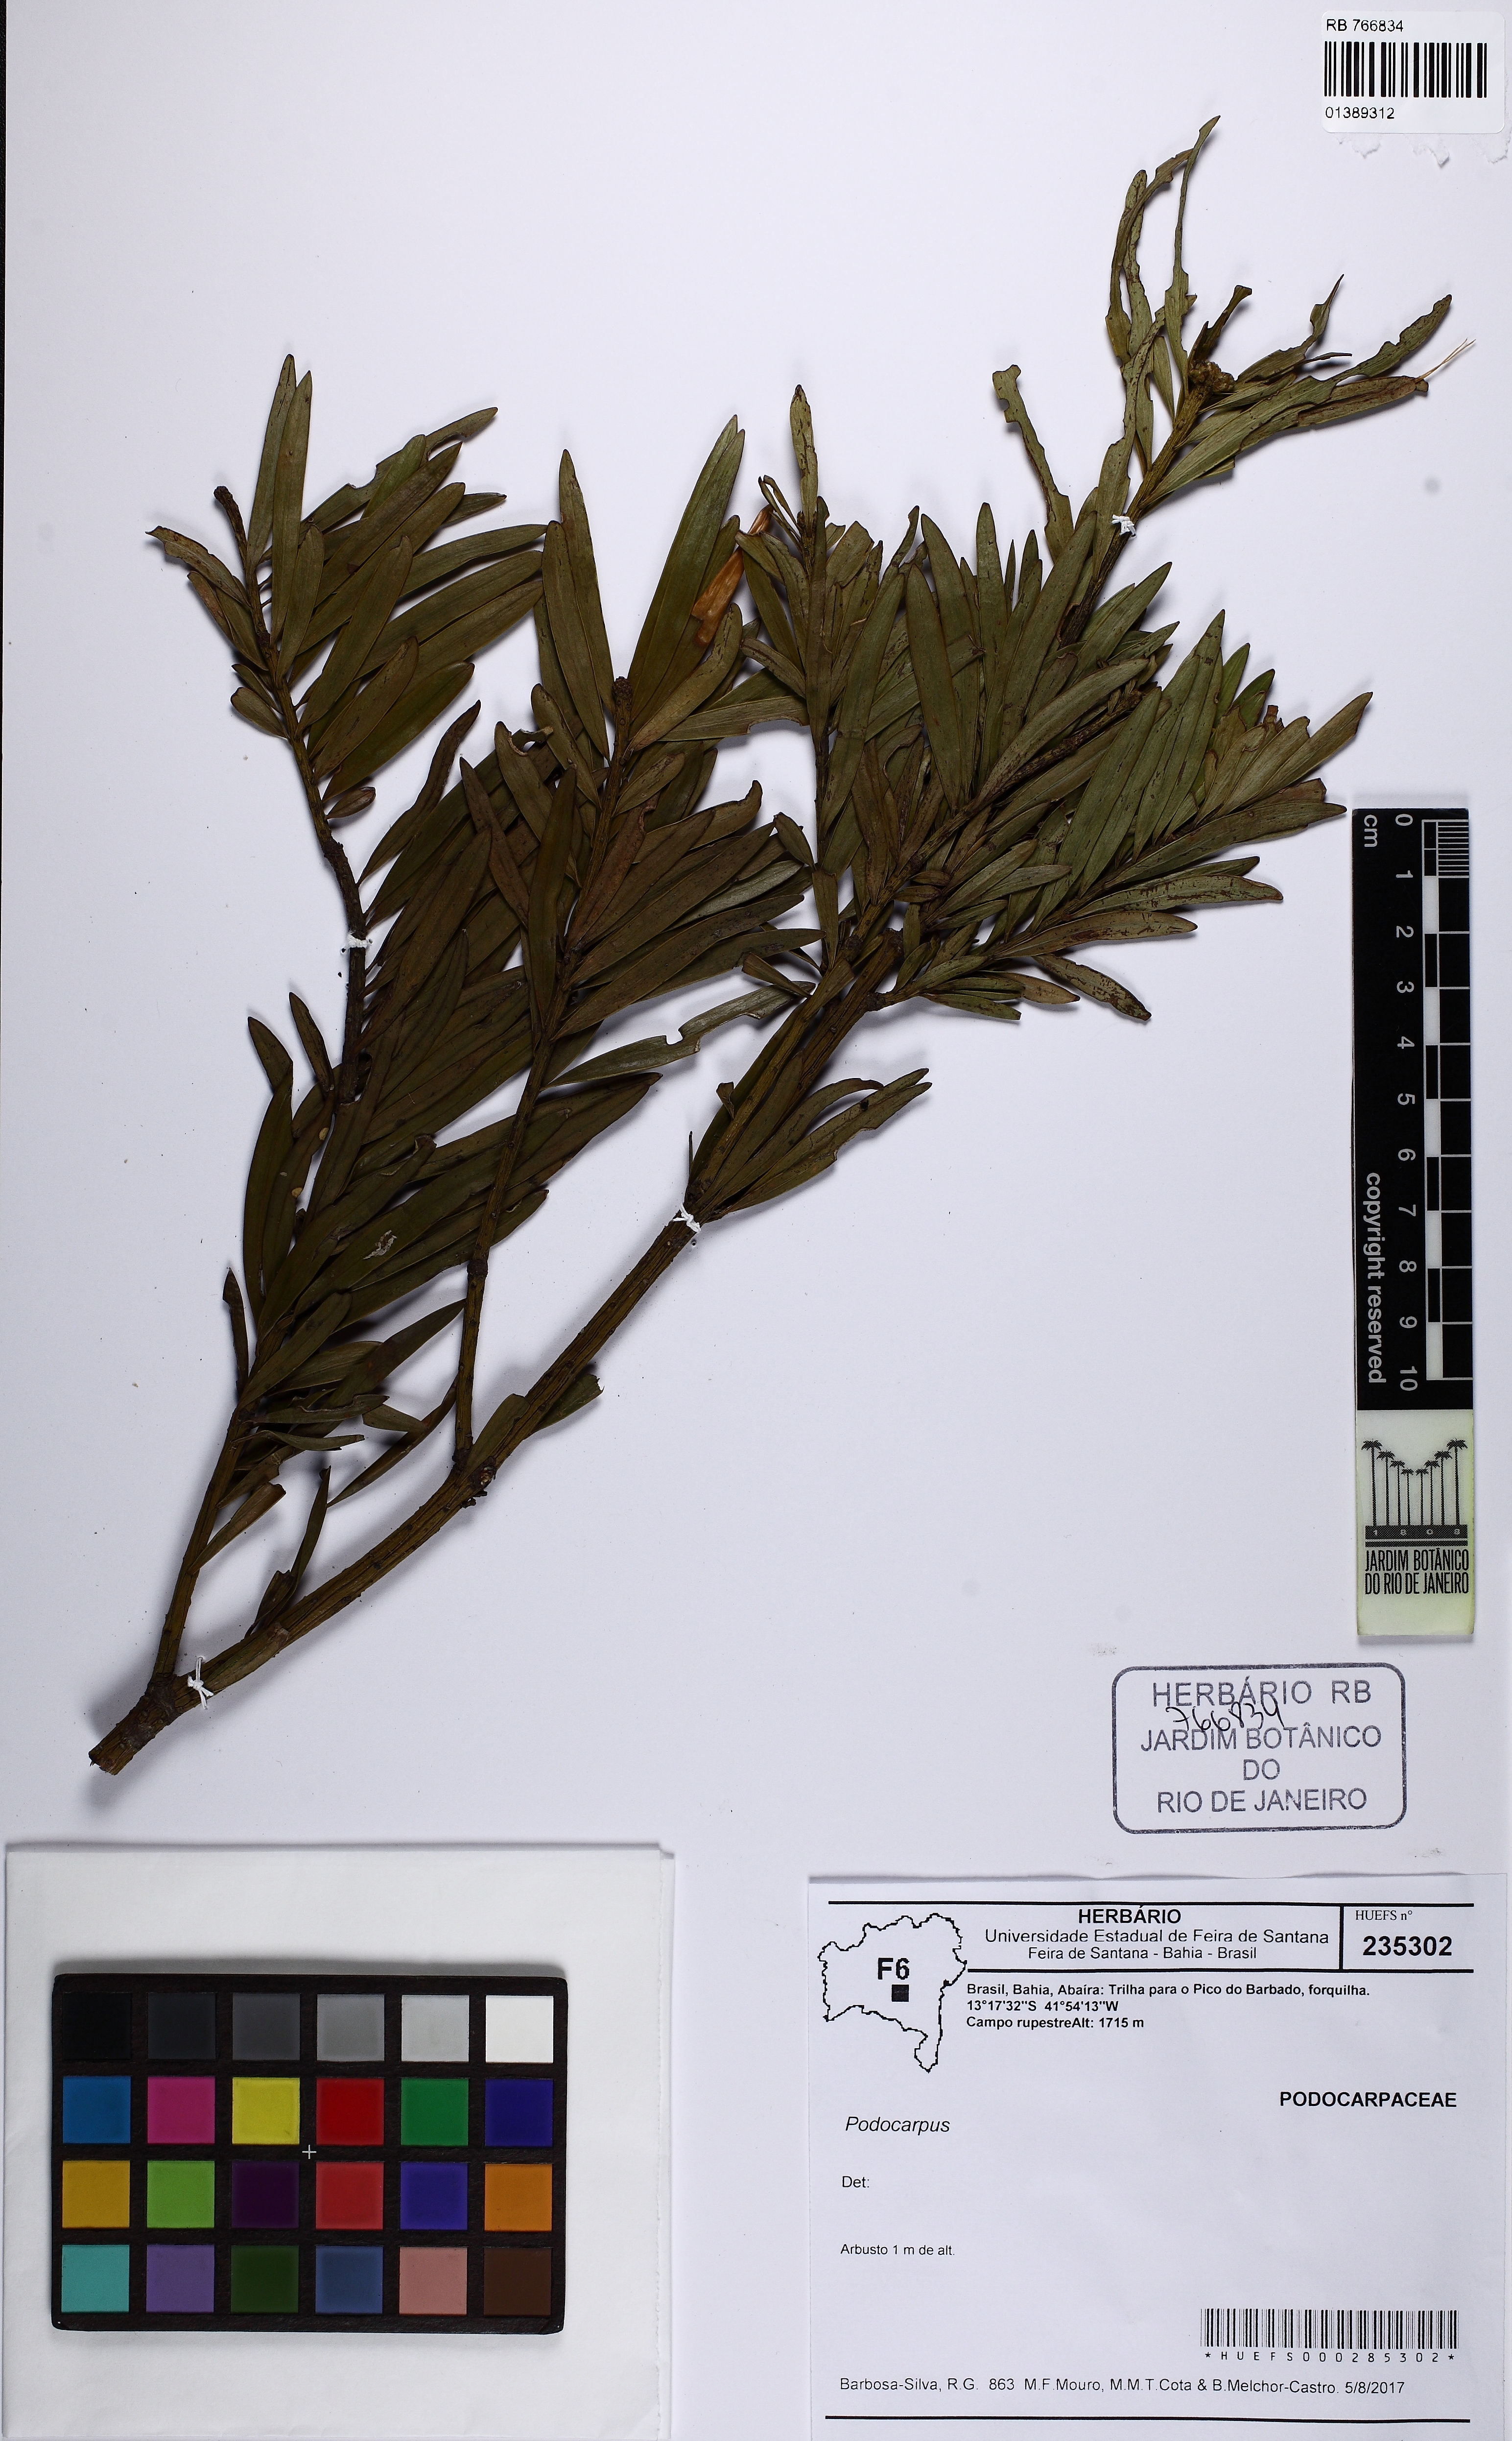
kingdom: Plantae
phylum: Tracheophyta
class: Pinopsida
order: Pinales
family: Podocarpaceae
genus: Podocarpus
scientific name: Podocarpus
